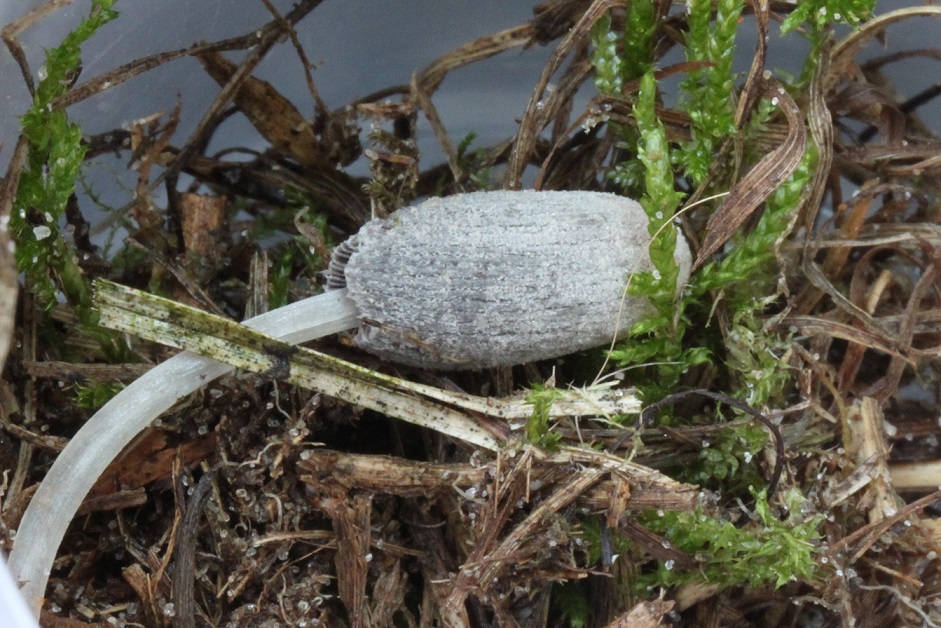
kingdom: Fungi
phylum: Basidiomycota
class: Agaricomycetes
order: Agaricales
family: Psathyrellaceae
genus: Narcissea
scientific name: Narcissea ephemeroides
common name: ring-blækhat
